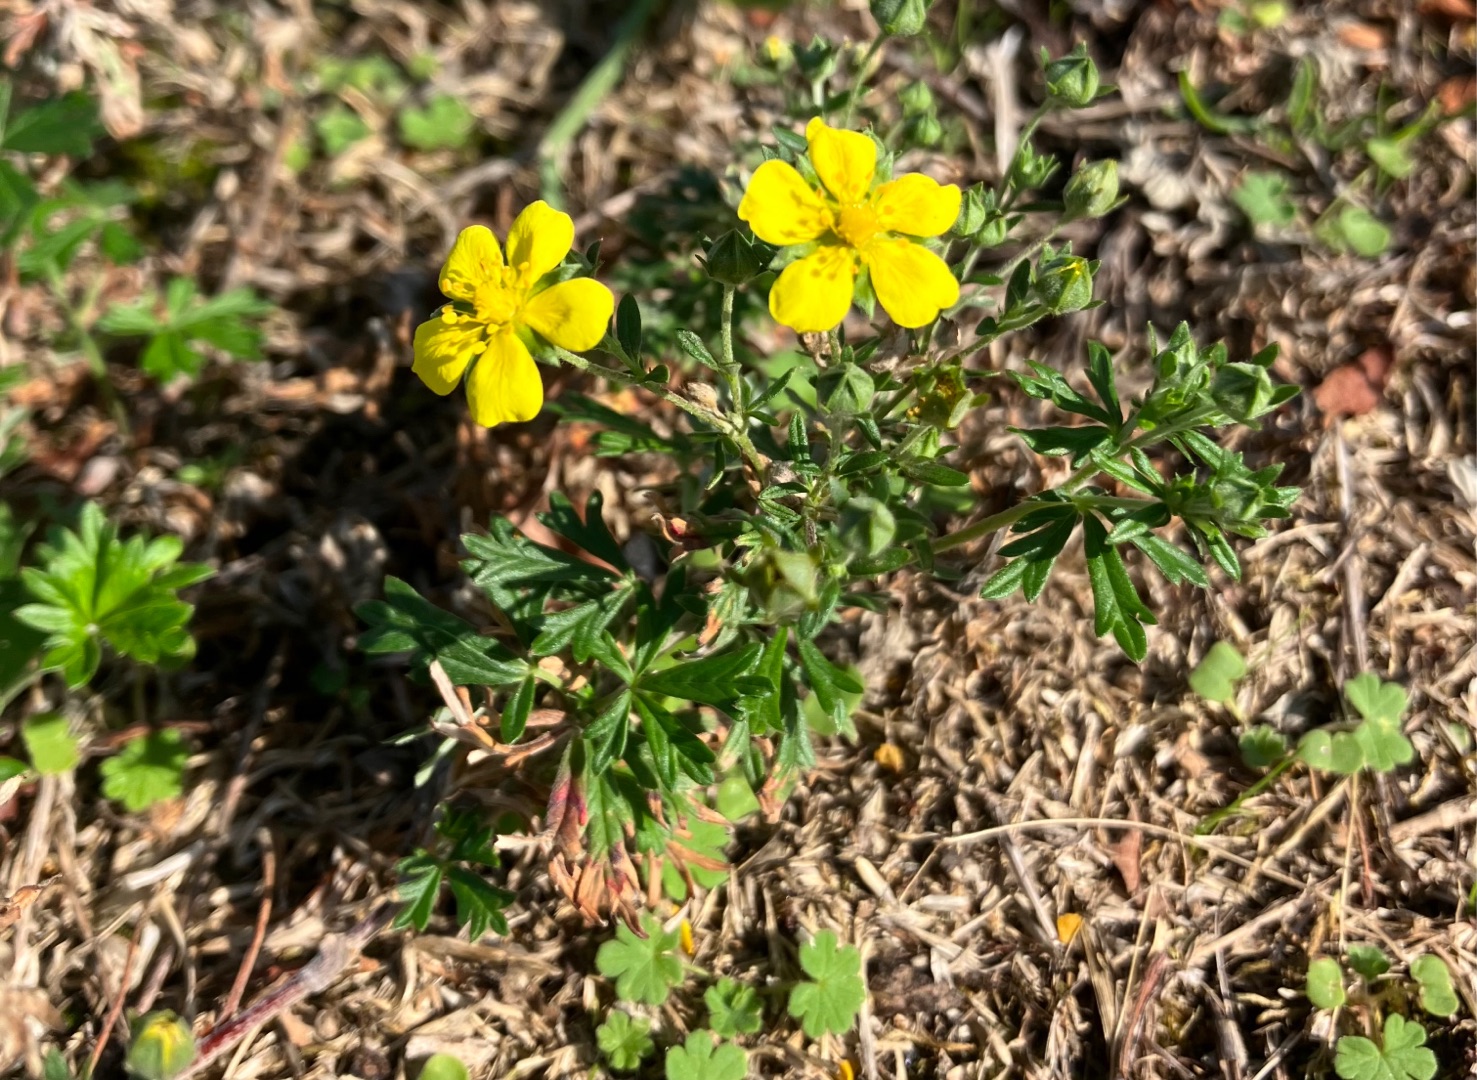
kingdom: Plantae
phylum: Tracheophyta
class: Magnoliopsida
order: Rosales
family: Rosaceae
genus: Potentilla
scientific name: Potentilla argentea
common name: Sølv-potentil
